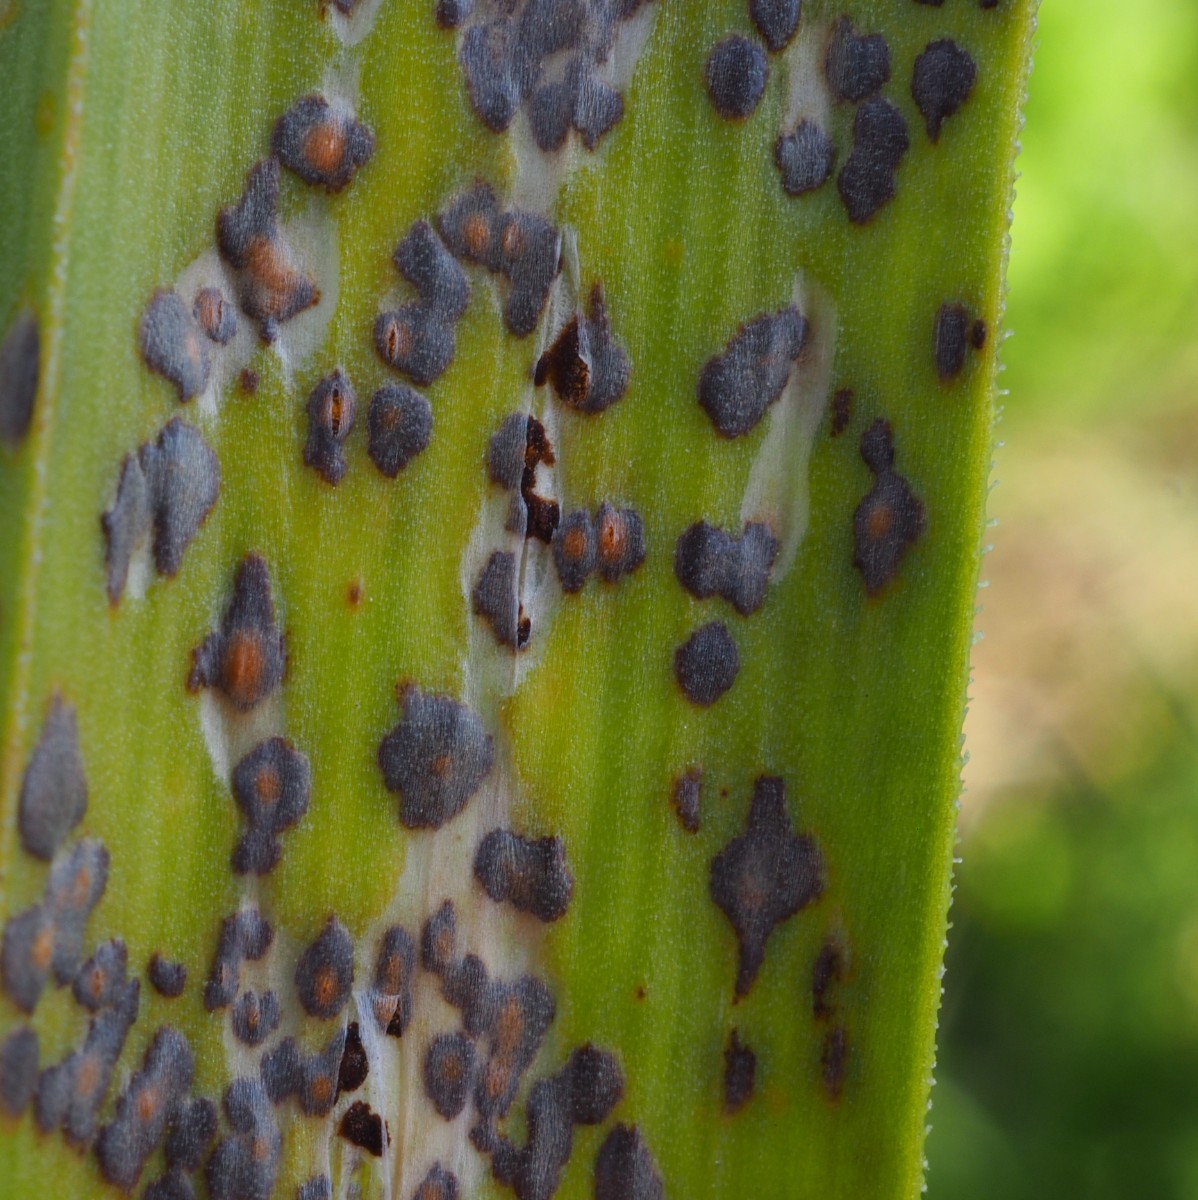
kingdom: Fungi
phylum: Basidiomycota
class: Pucciniomycetes
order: Pucciniales
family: Pucciniaceae
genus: Puccinia
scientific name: Puccinia porri
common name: Allium rust
